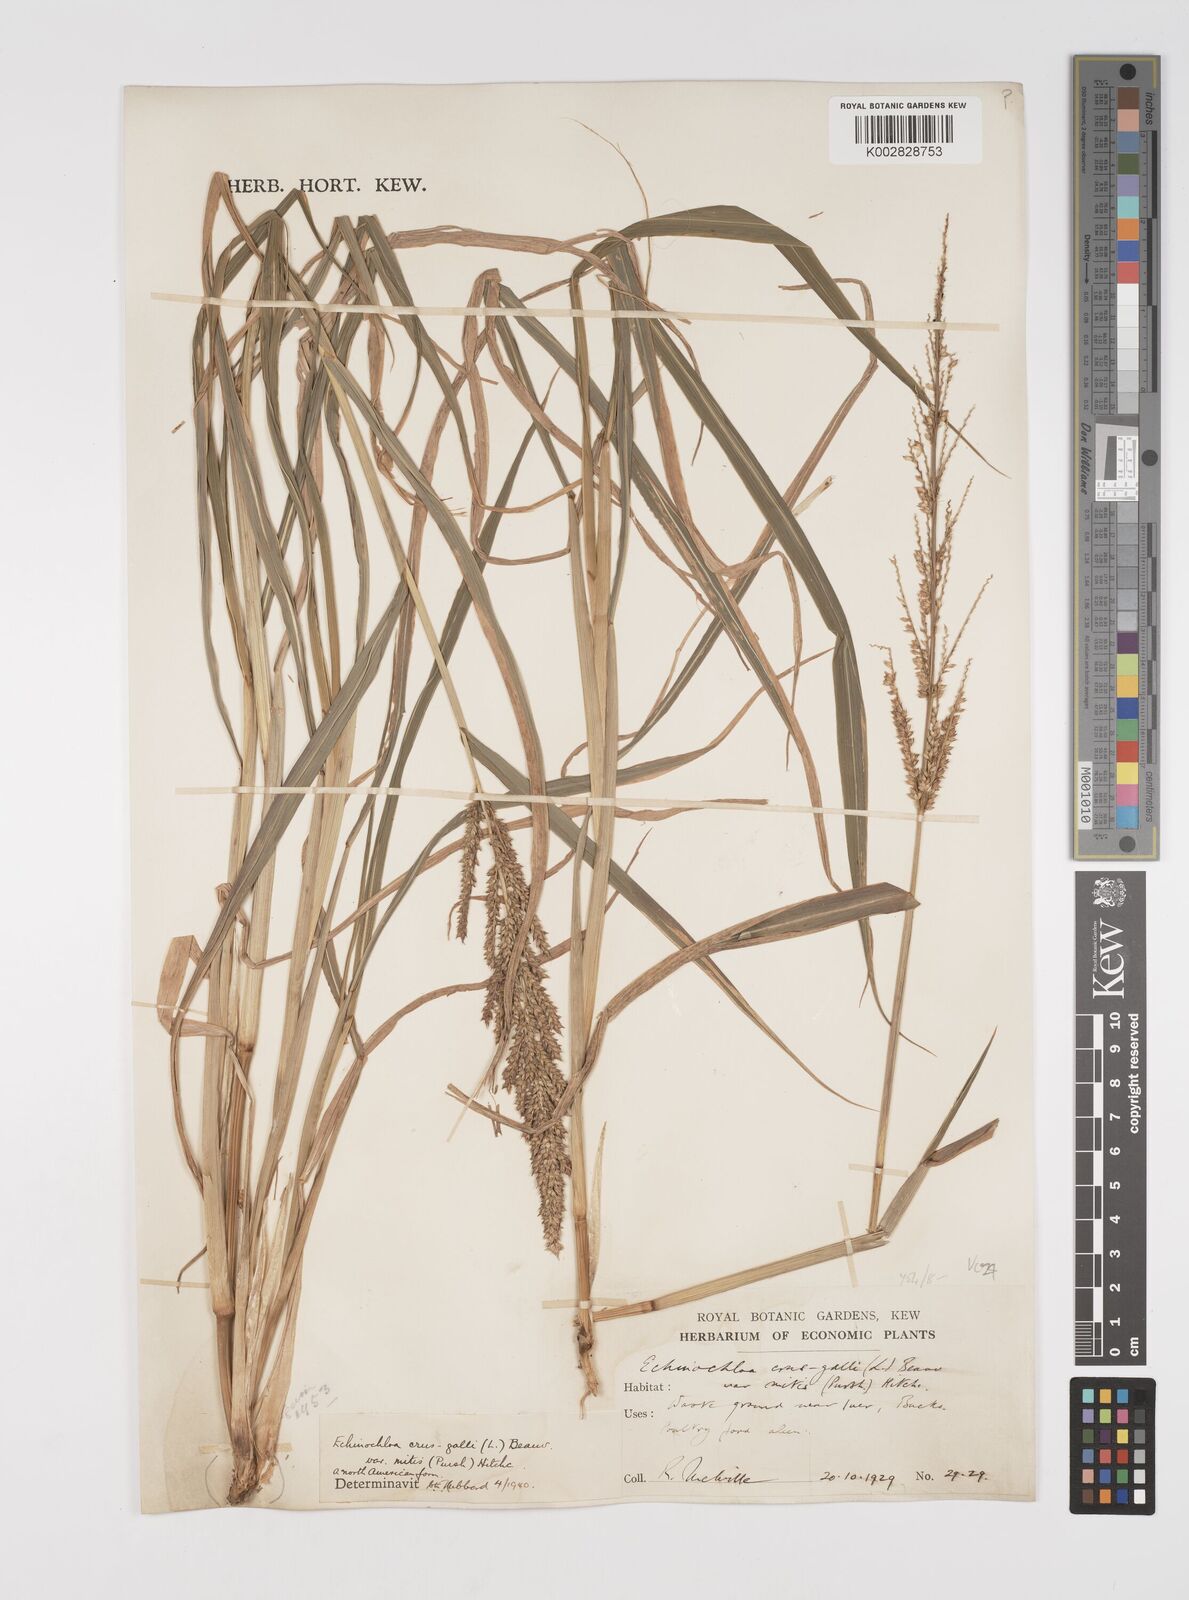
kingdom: Plantae
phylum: Tracheophyta
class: Liliopsida
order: Poales
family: Poaceae
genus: Echinochloa
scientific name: Echinochloa crus-galli
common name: Cockspur
